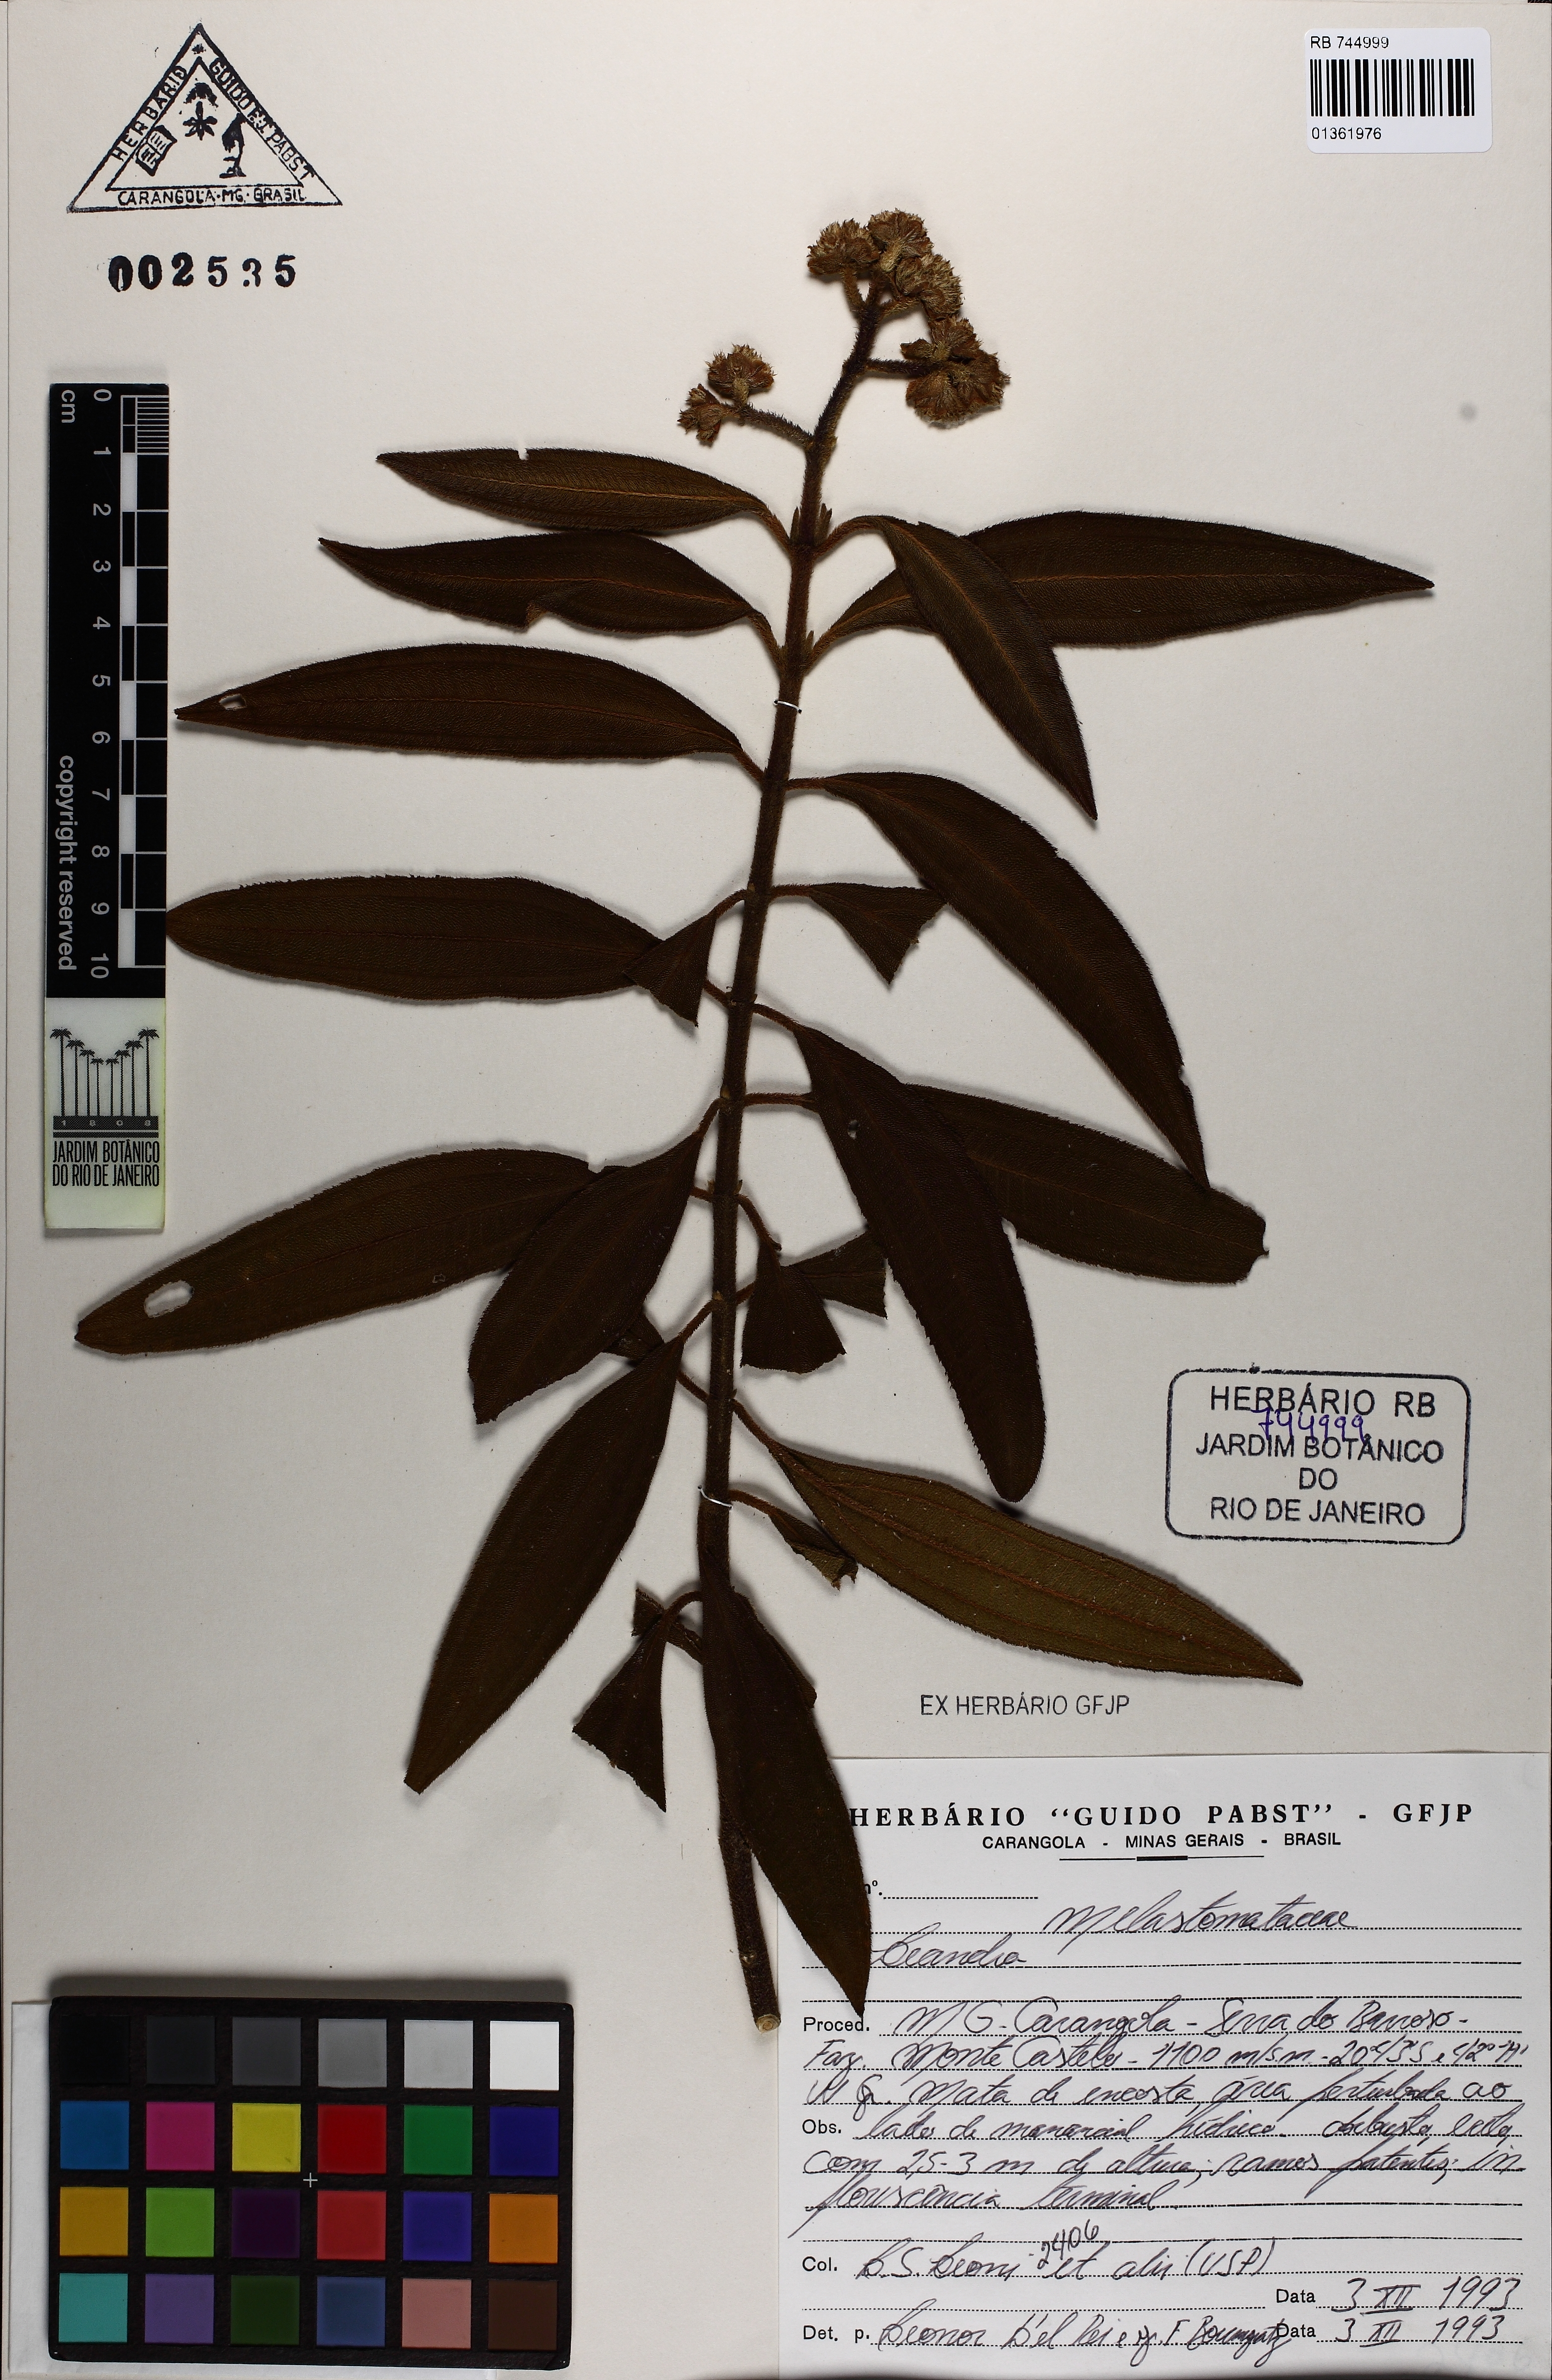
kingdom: Plantae
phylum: Tracheophyta
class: Magnoliopsida
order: Myrtales
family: Melastomataceae
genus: Miconia
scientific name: Miconia
